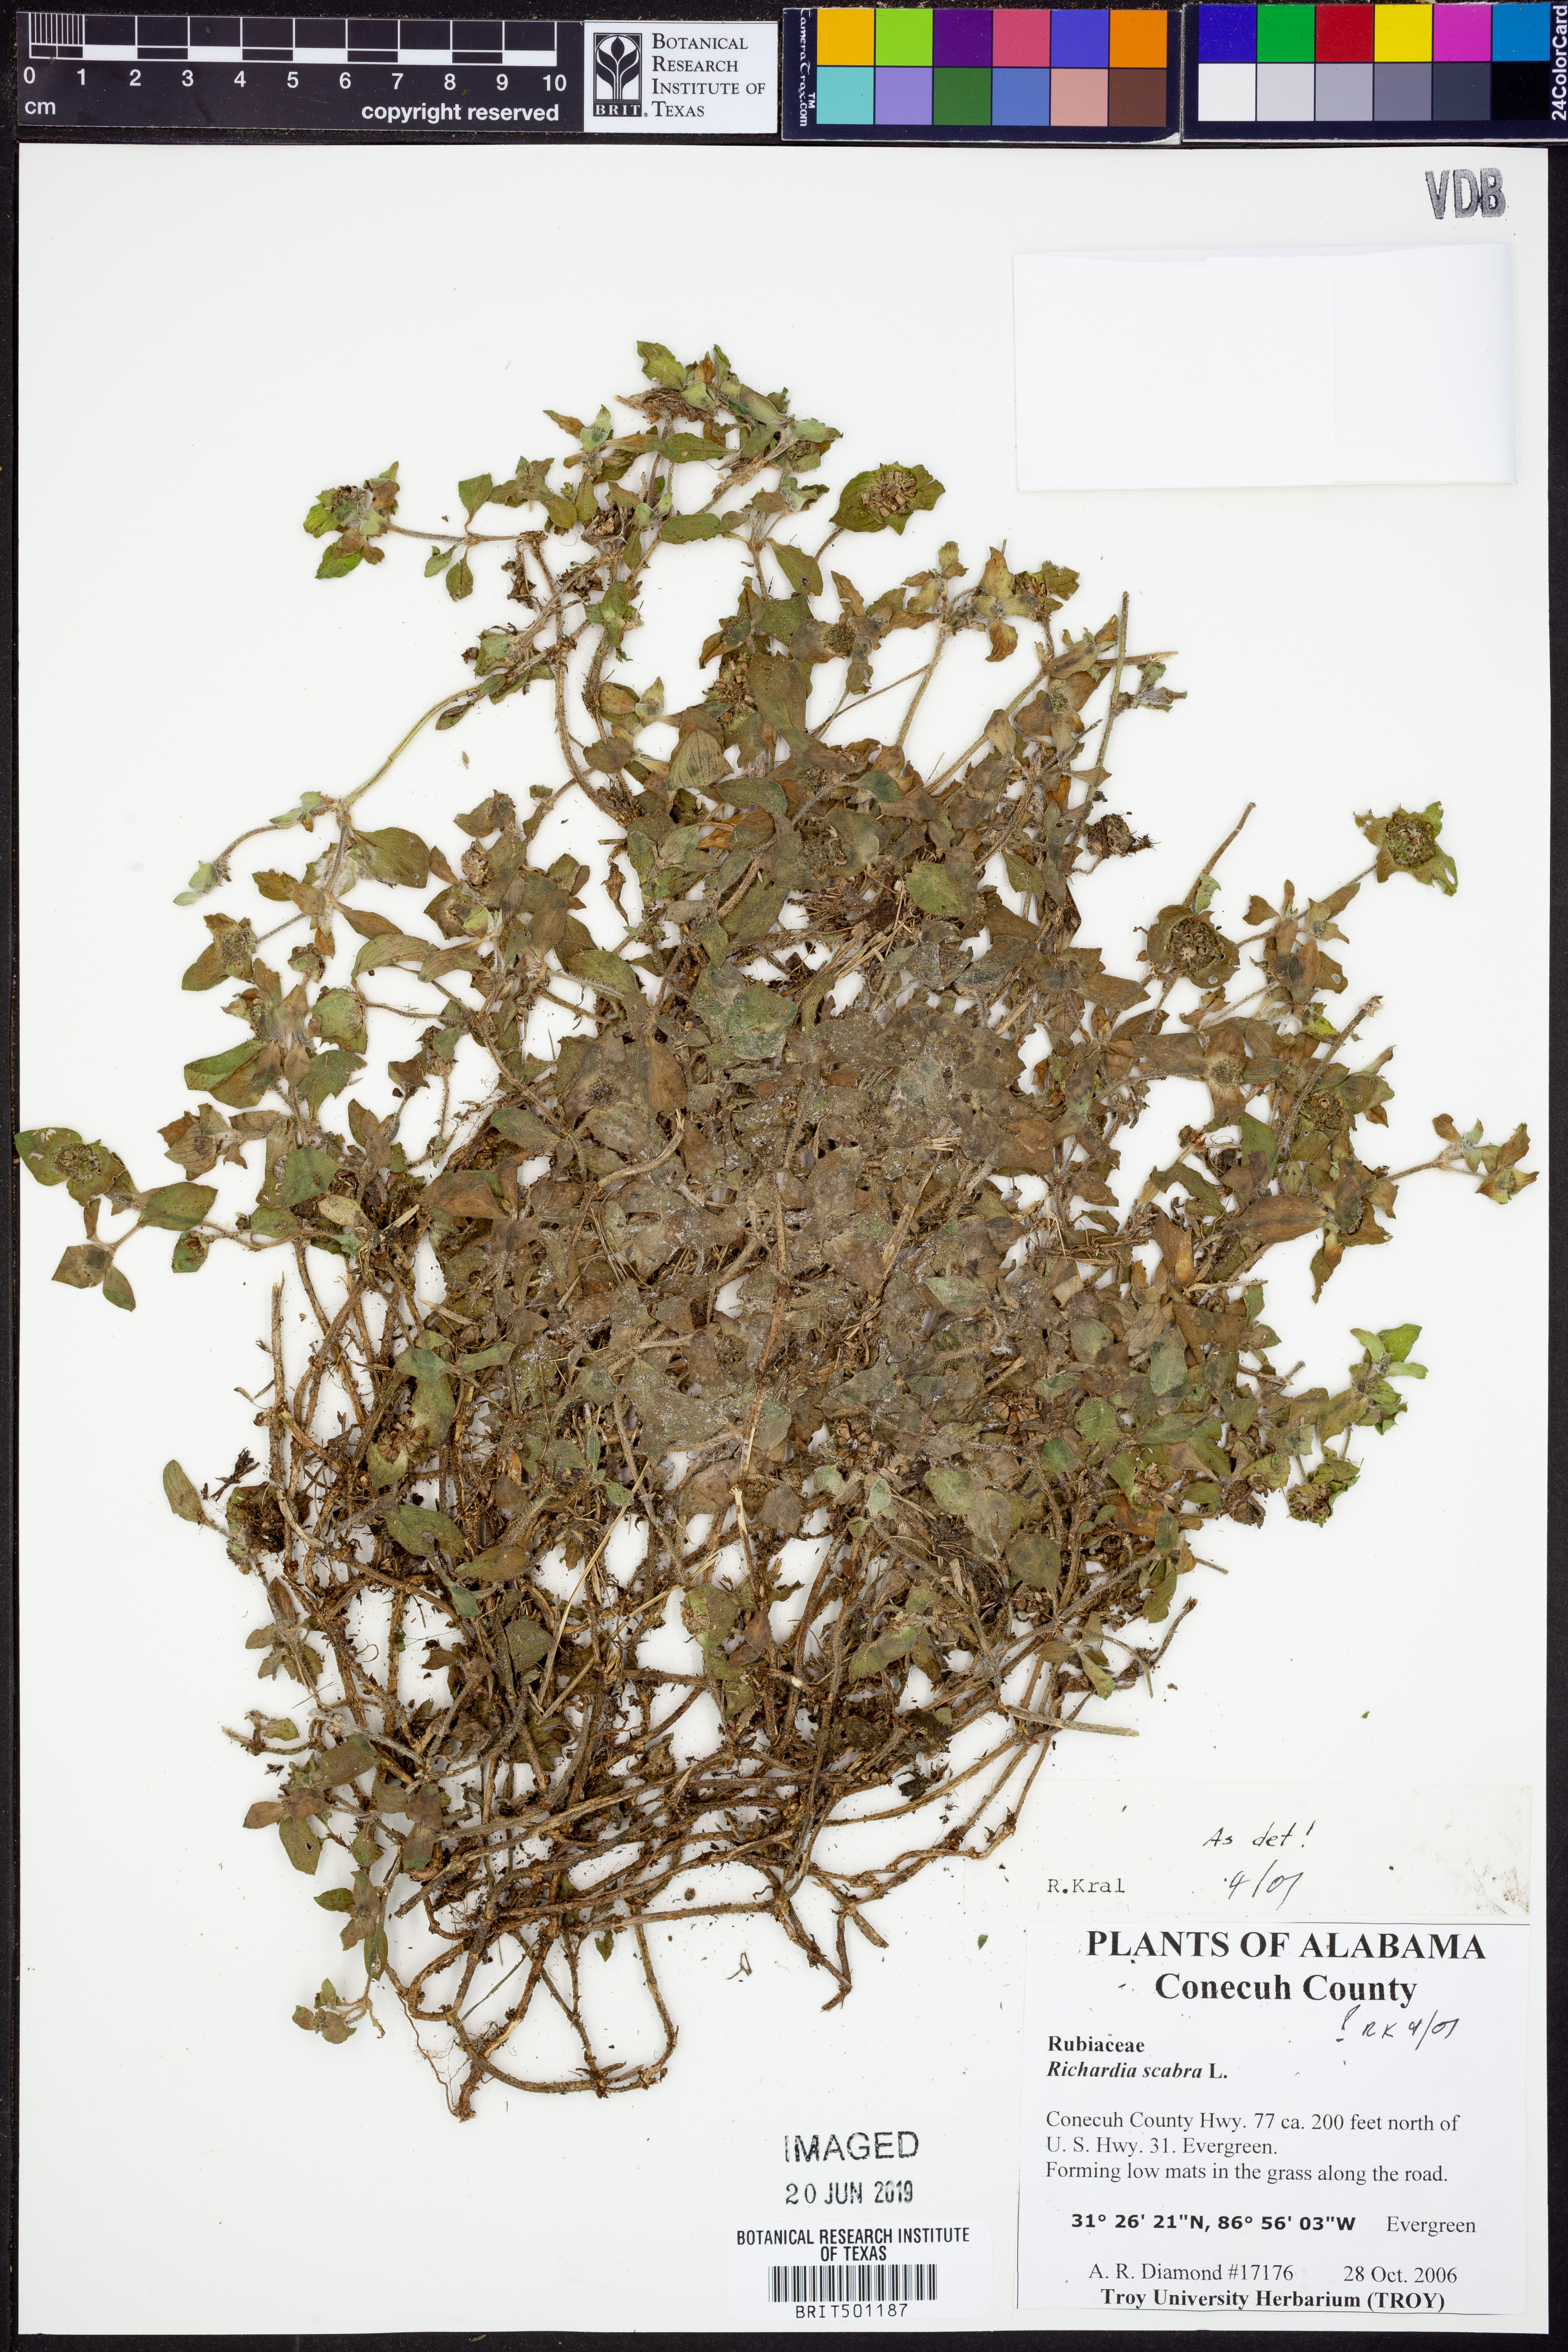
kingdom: Plantae
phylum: Tracheophyta
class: Magnoliopsida
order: Gentianales
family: Rubiaceae
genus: Richardia
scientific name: Richardia scabra
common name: Rough mexican clover
